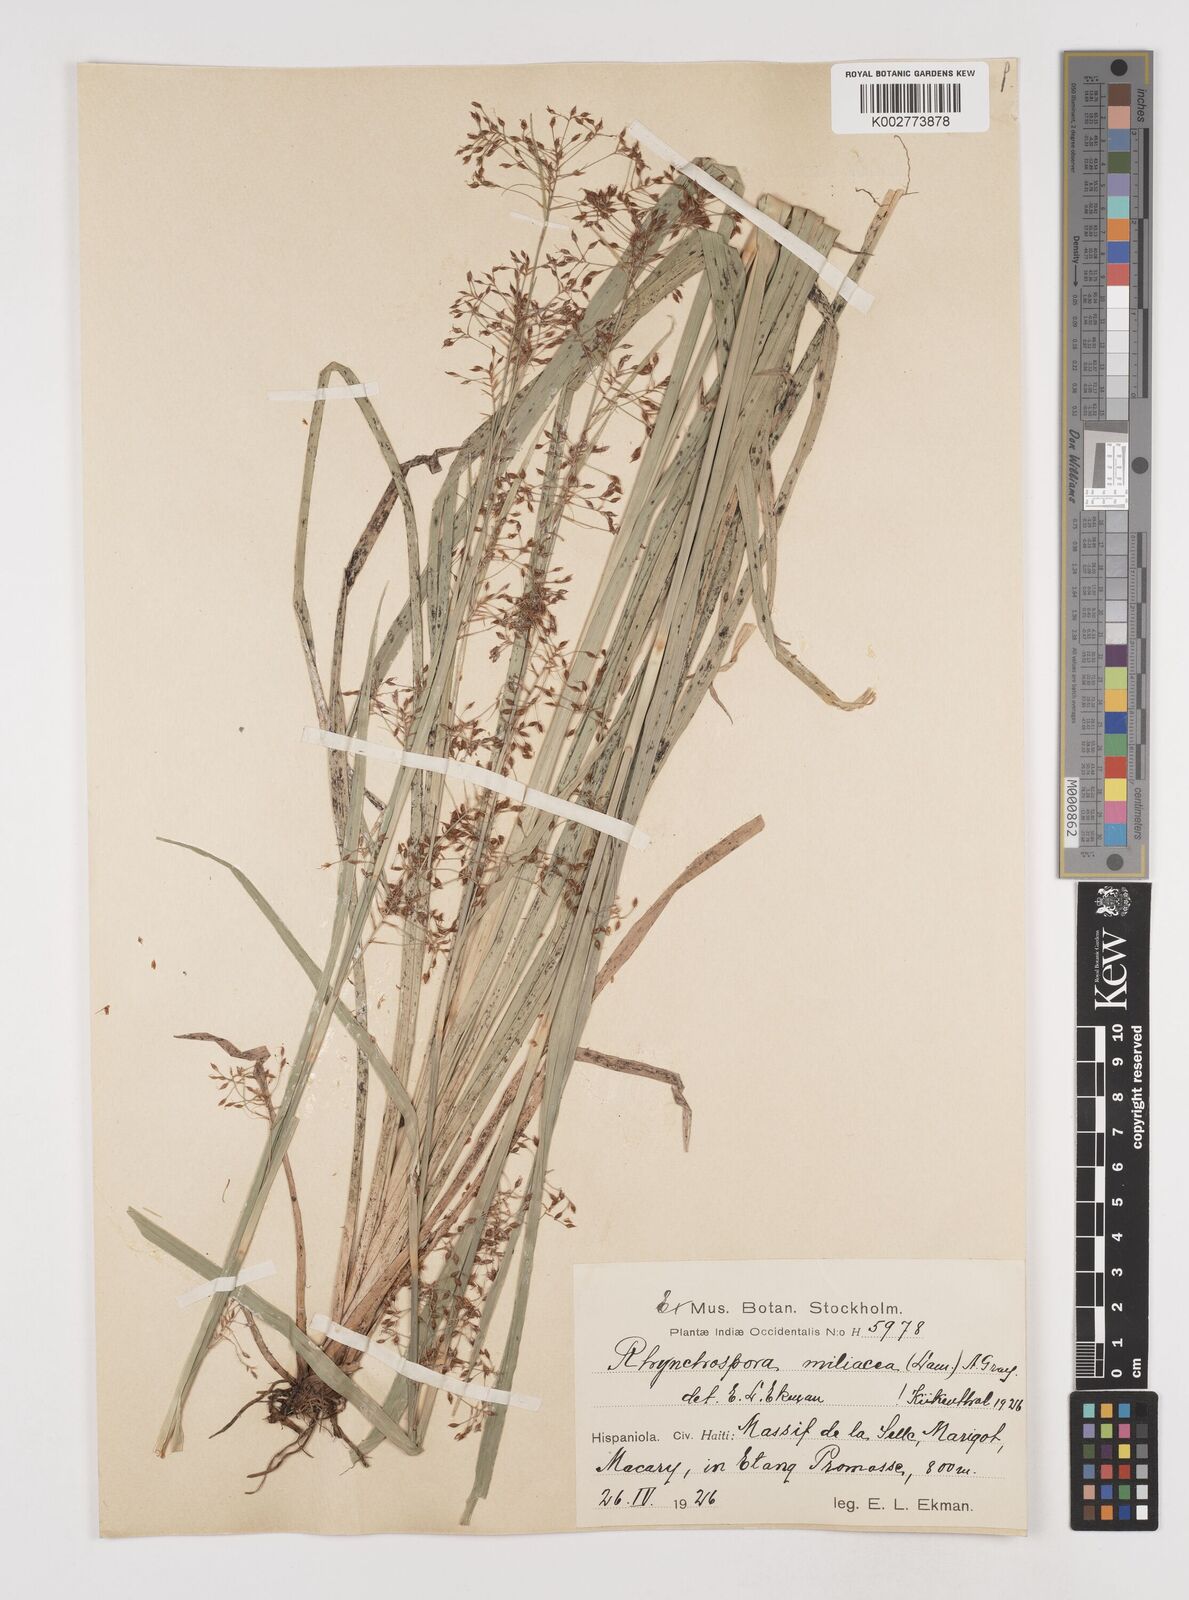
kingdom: Plantae
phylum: Tracheophyta
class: Liliopsida
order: Poales
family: Cyperaceae
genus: Rhynchospora
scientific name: Rhynchospora miliacea
